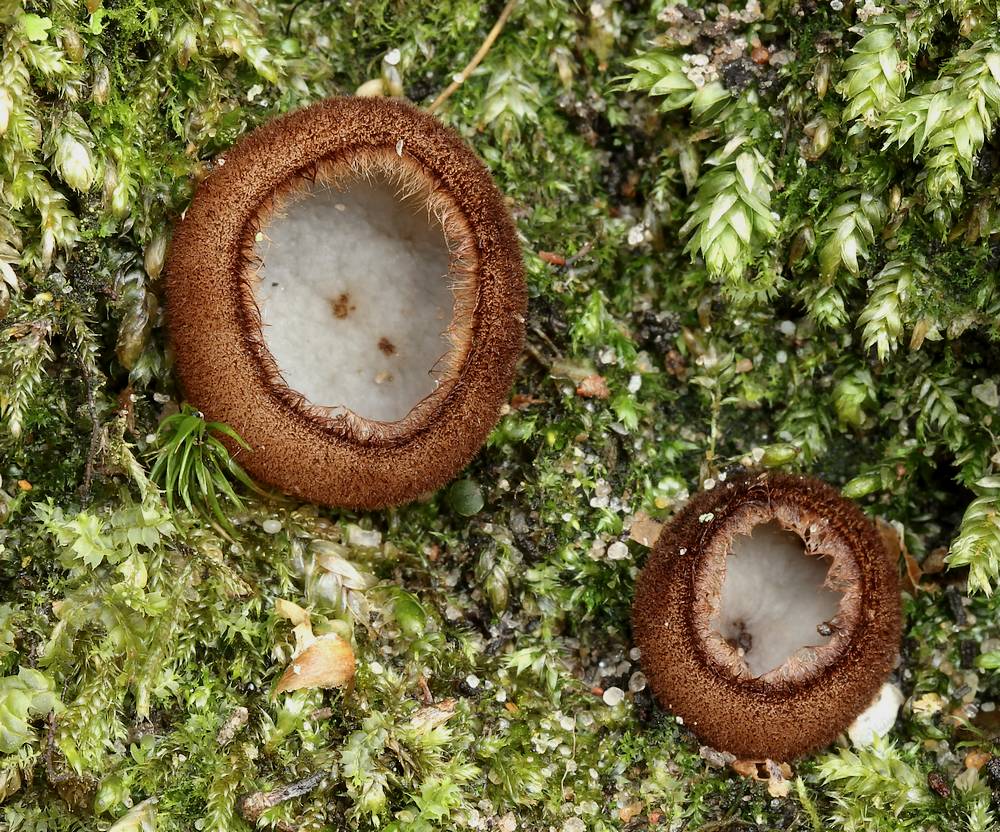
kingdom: Fungi
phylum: Ascomycota
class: Pezizomycetes
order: Pezizales
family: Pyronemataceae
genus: Humaria
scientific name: Humaria hemisphaerica
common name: halvkugleformet børstebæger
